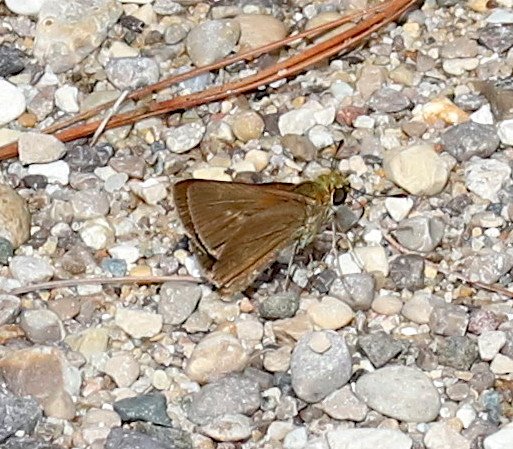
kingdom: Animalia
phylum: Arthropoda
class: Insecta
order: Lepidoptera
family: Hesperiidae
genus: Euphyes
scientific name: Euphyes vestris
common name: Dun Skipper
